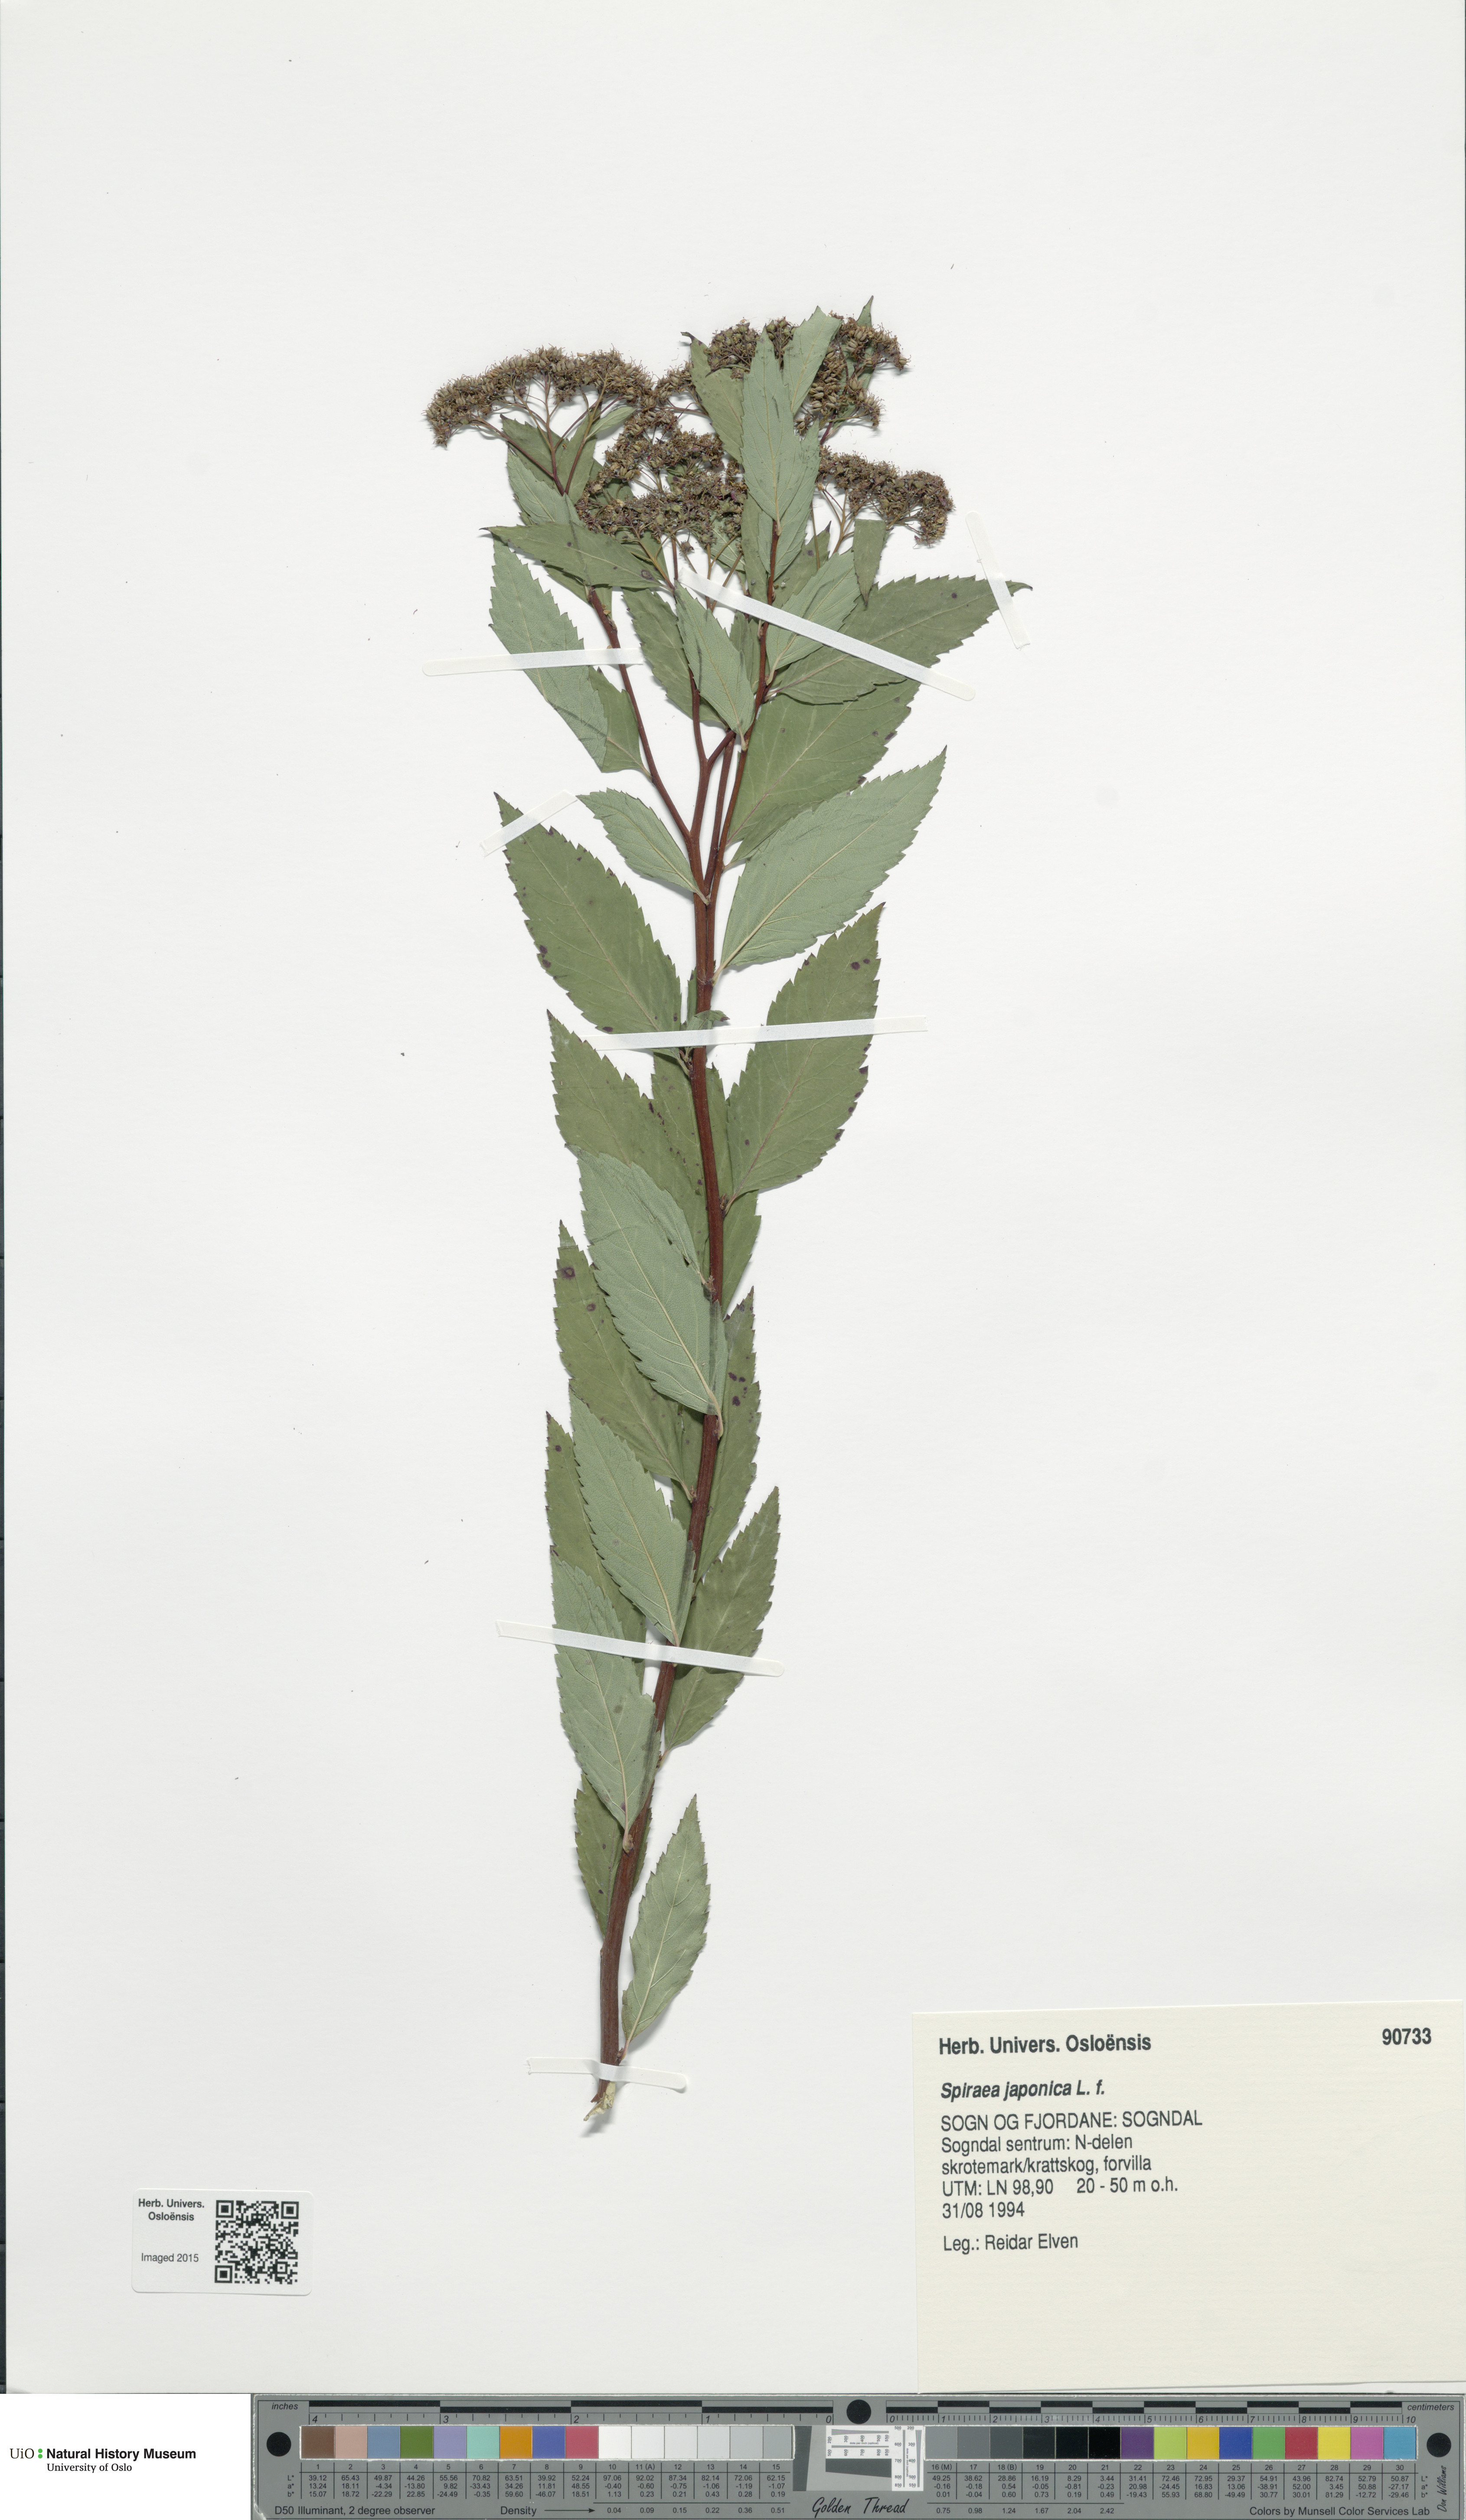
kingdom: Plantae
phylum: Tracheophyta
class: Magnoliopsida
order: Rosales
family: Rosaceae
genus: Spiraea
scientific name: Spiraea japonica
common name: Japanese spiraea
